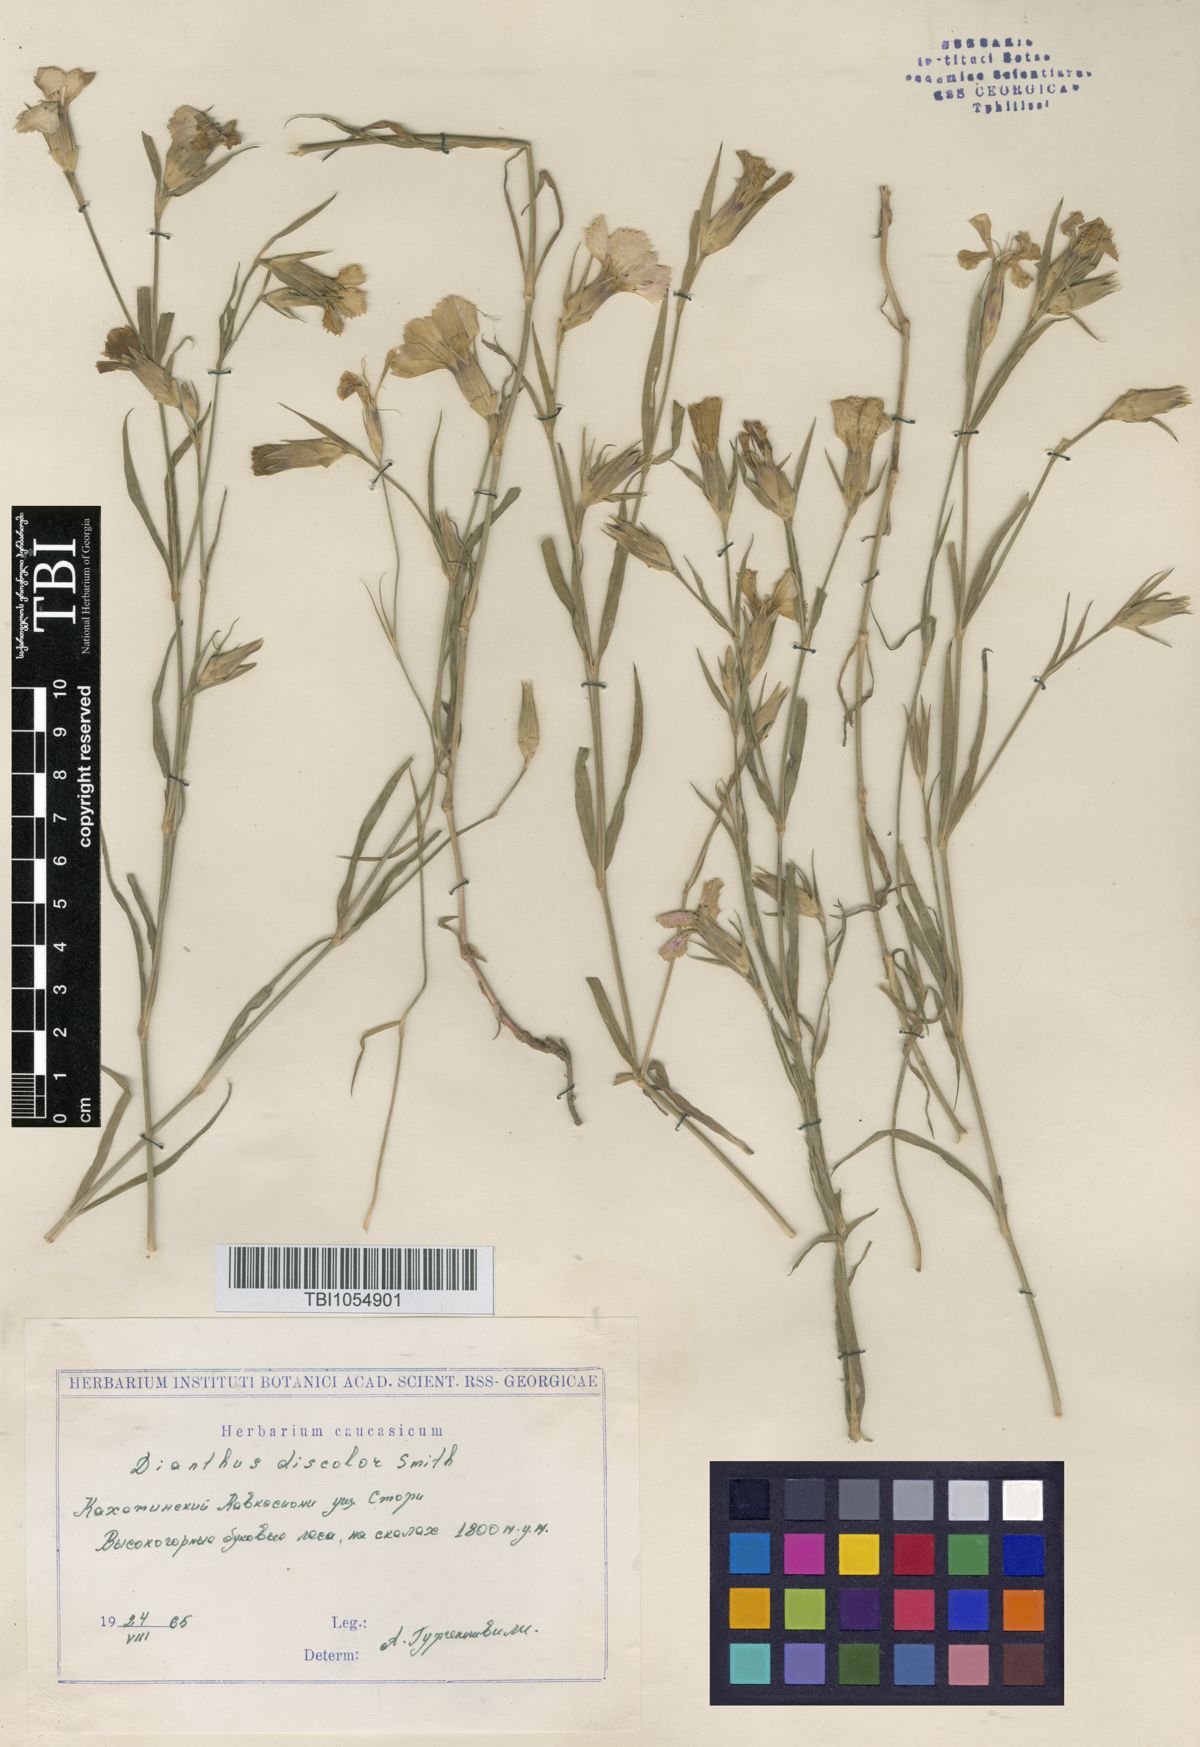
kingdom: Plantae
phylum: Tracheophyta
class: Magnoliopsida
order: Caryophyllales
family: Caryophyllaceae
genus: Dianthus
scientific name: Dianthus caucaseus
